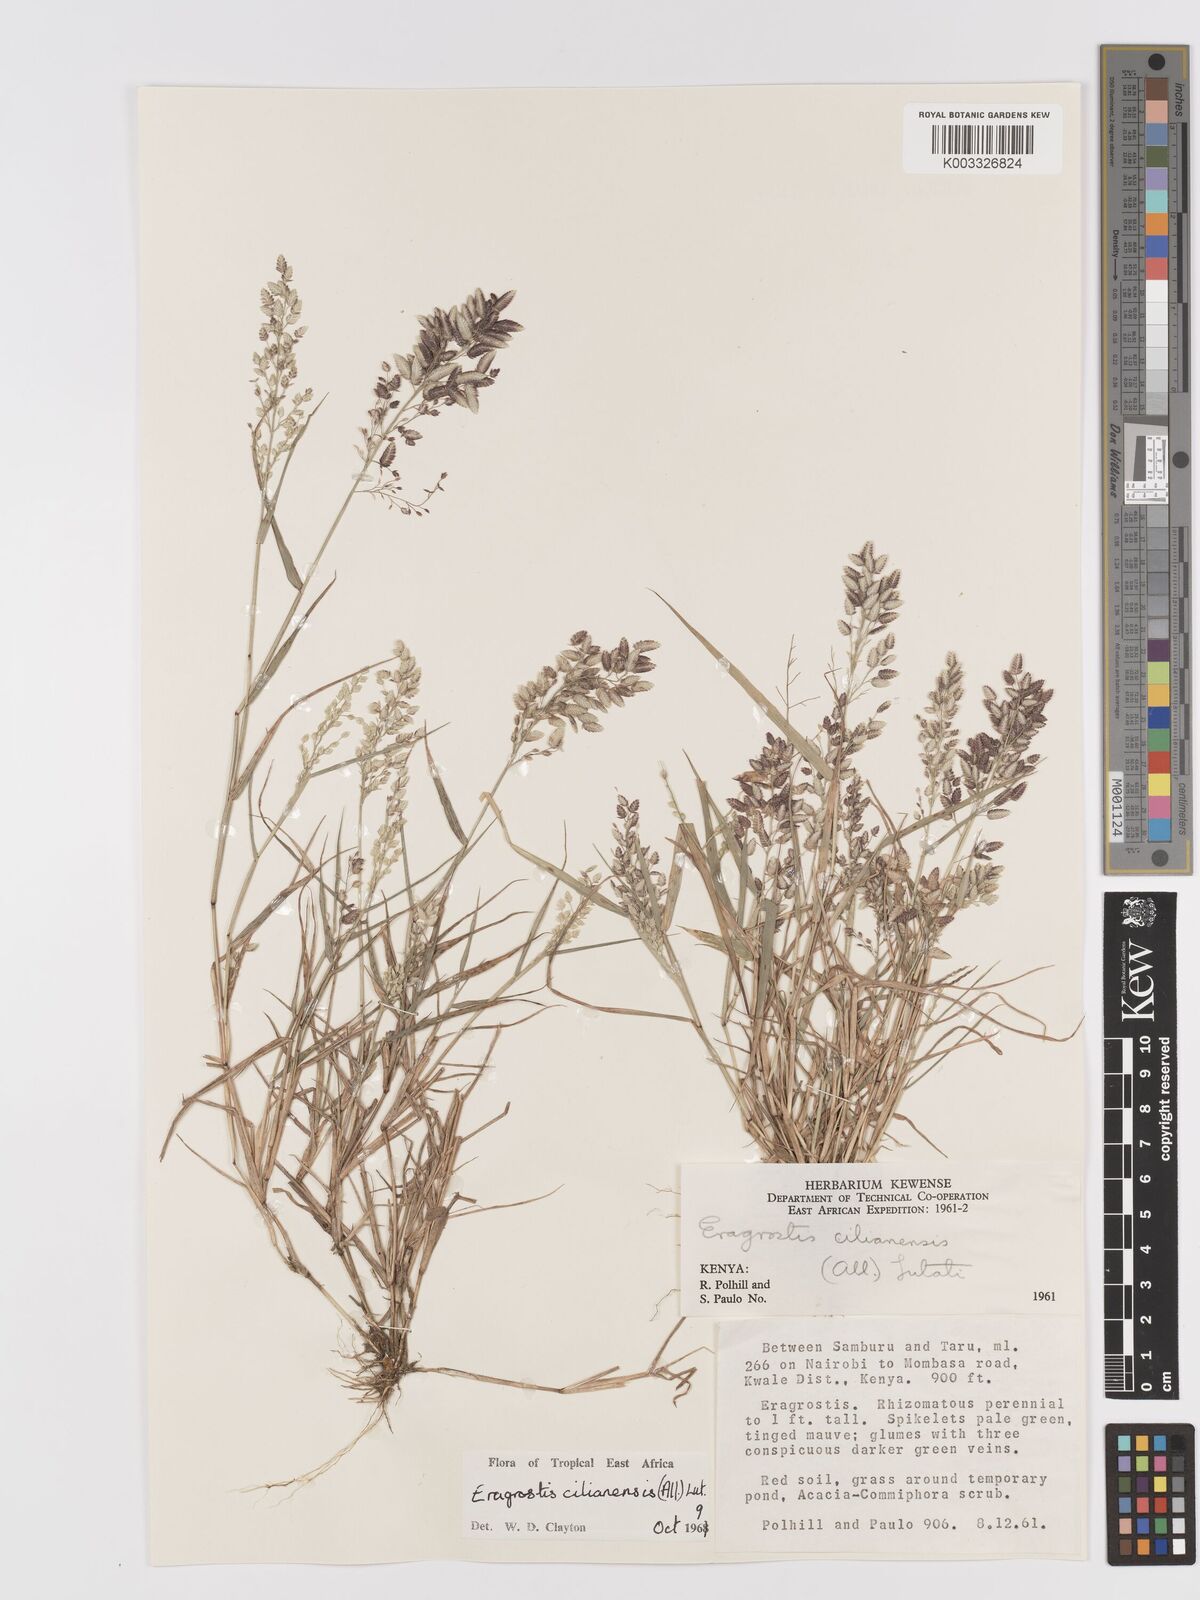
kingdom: Plantae
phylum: Tracheophyta
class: Liliopsida
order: Poales
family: Poaceae
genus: Eragrostis
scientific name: Eragrostis cilianensis
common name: Stinkgrass
